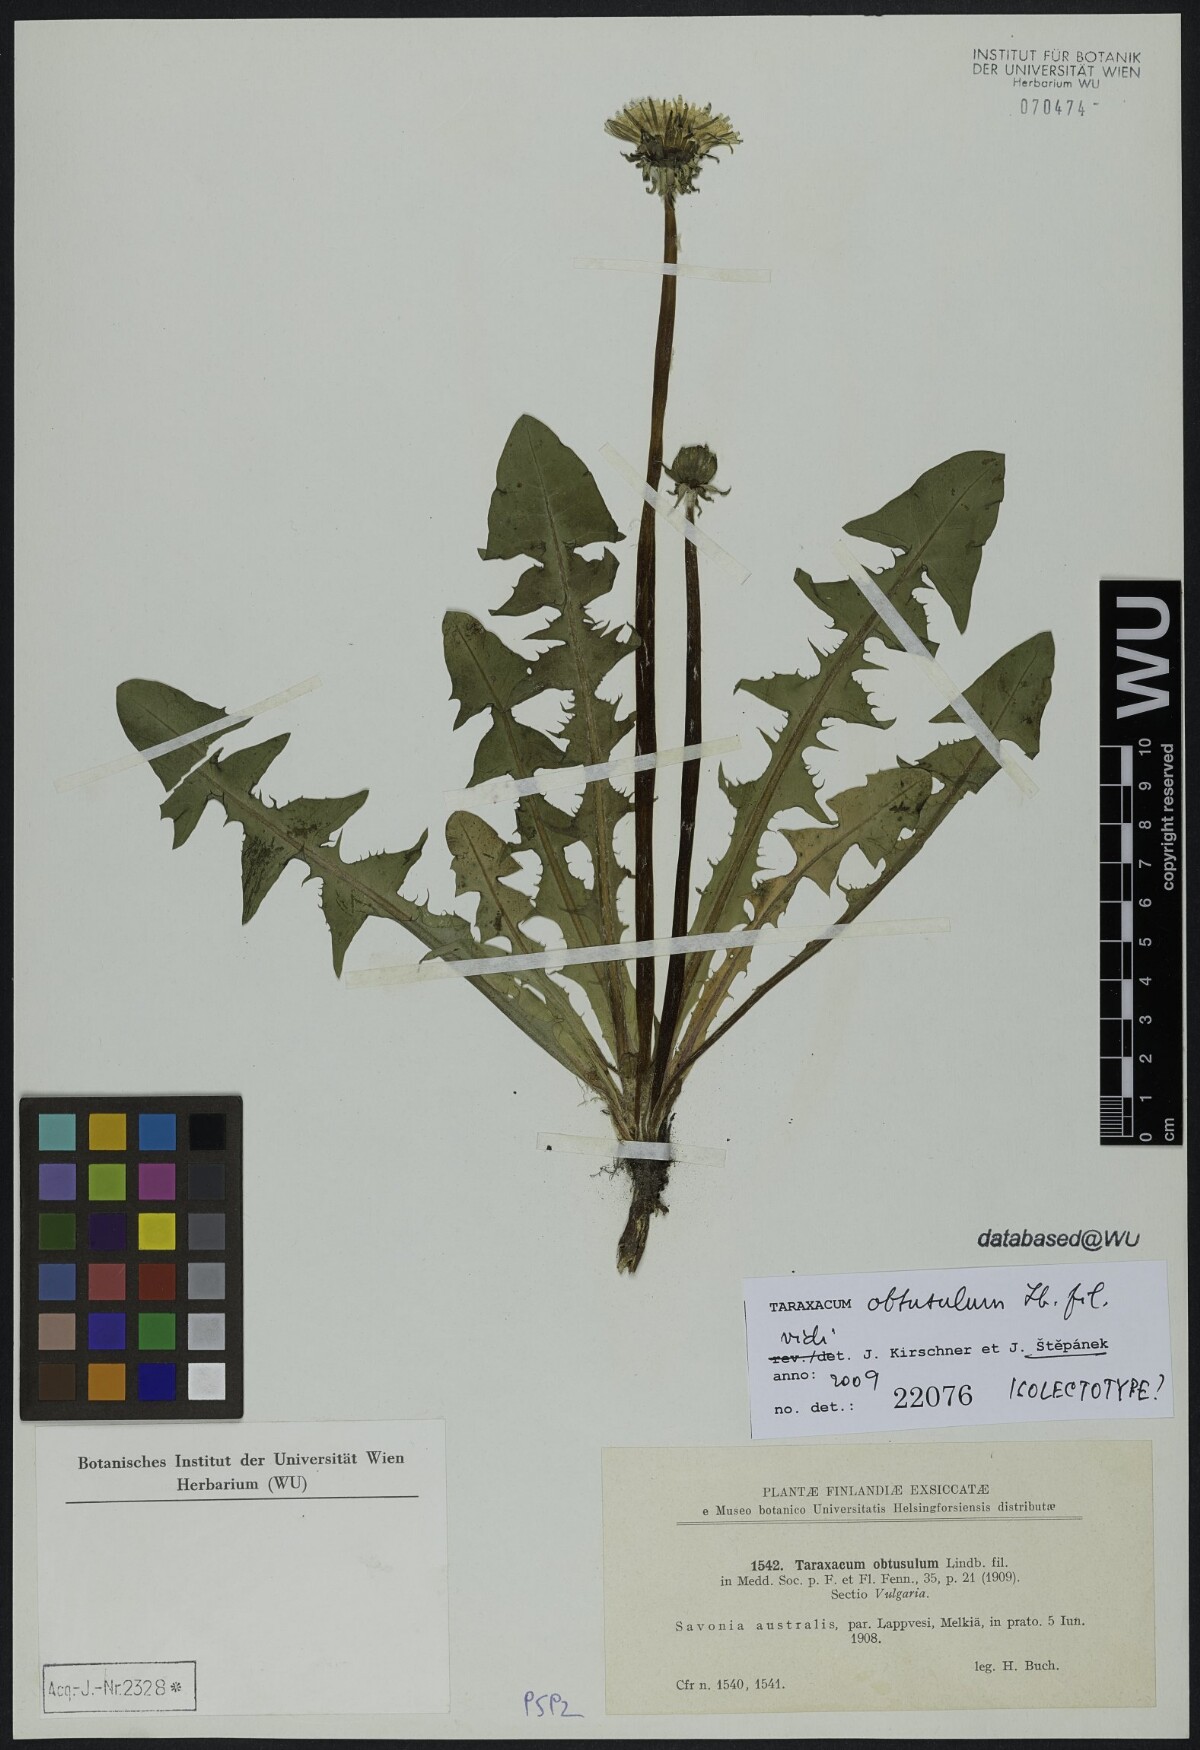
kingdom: Plantae
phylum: Tracheophyta
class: Magnoliopsida
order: Asterales
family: Asteraceae
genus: Taraxacum
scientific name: Taraxacum obtusulum
